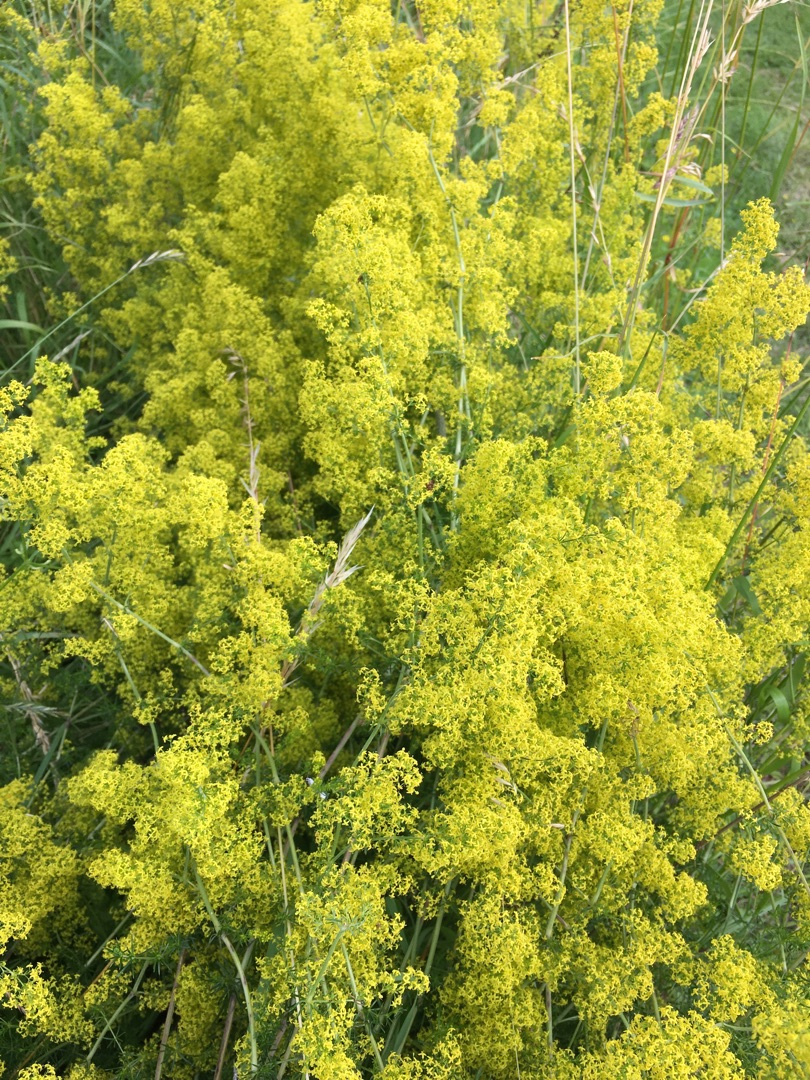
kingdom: Plantae
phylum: Tracheophyta
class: Magnoliopsida
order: Gentianales
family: Rubiaceae
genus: Galium
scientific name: Galium verum
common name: Gul snerre
